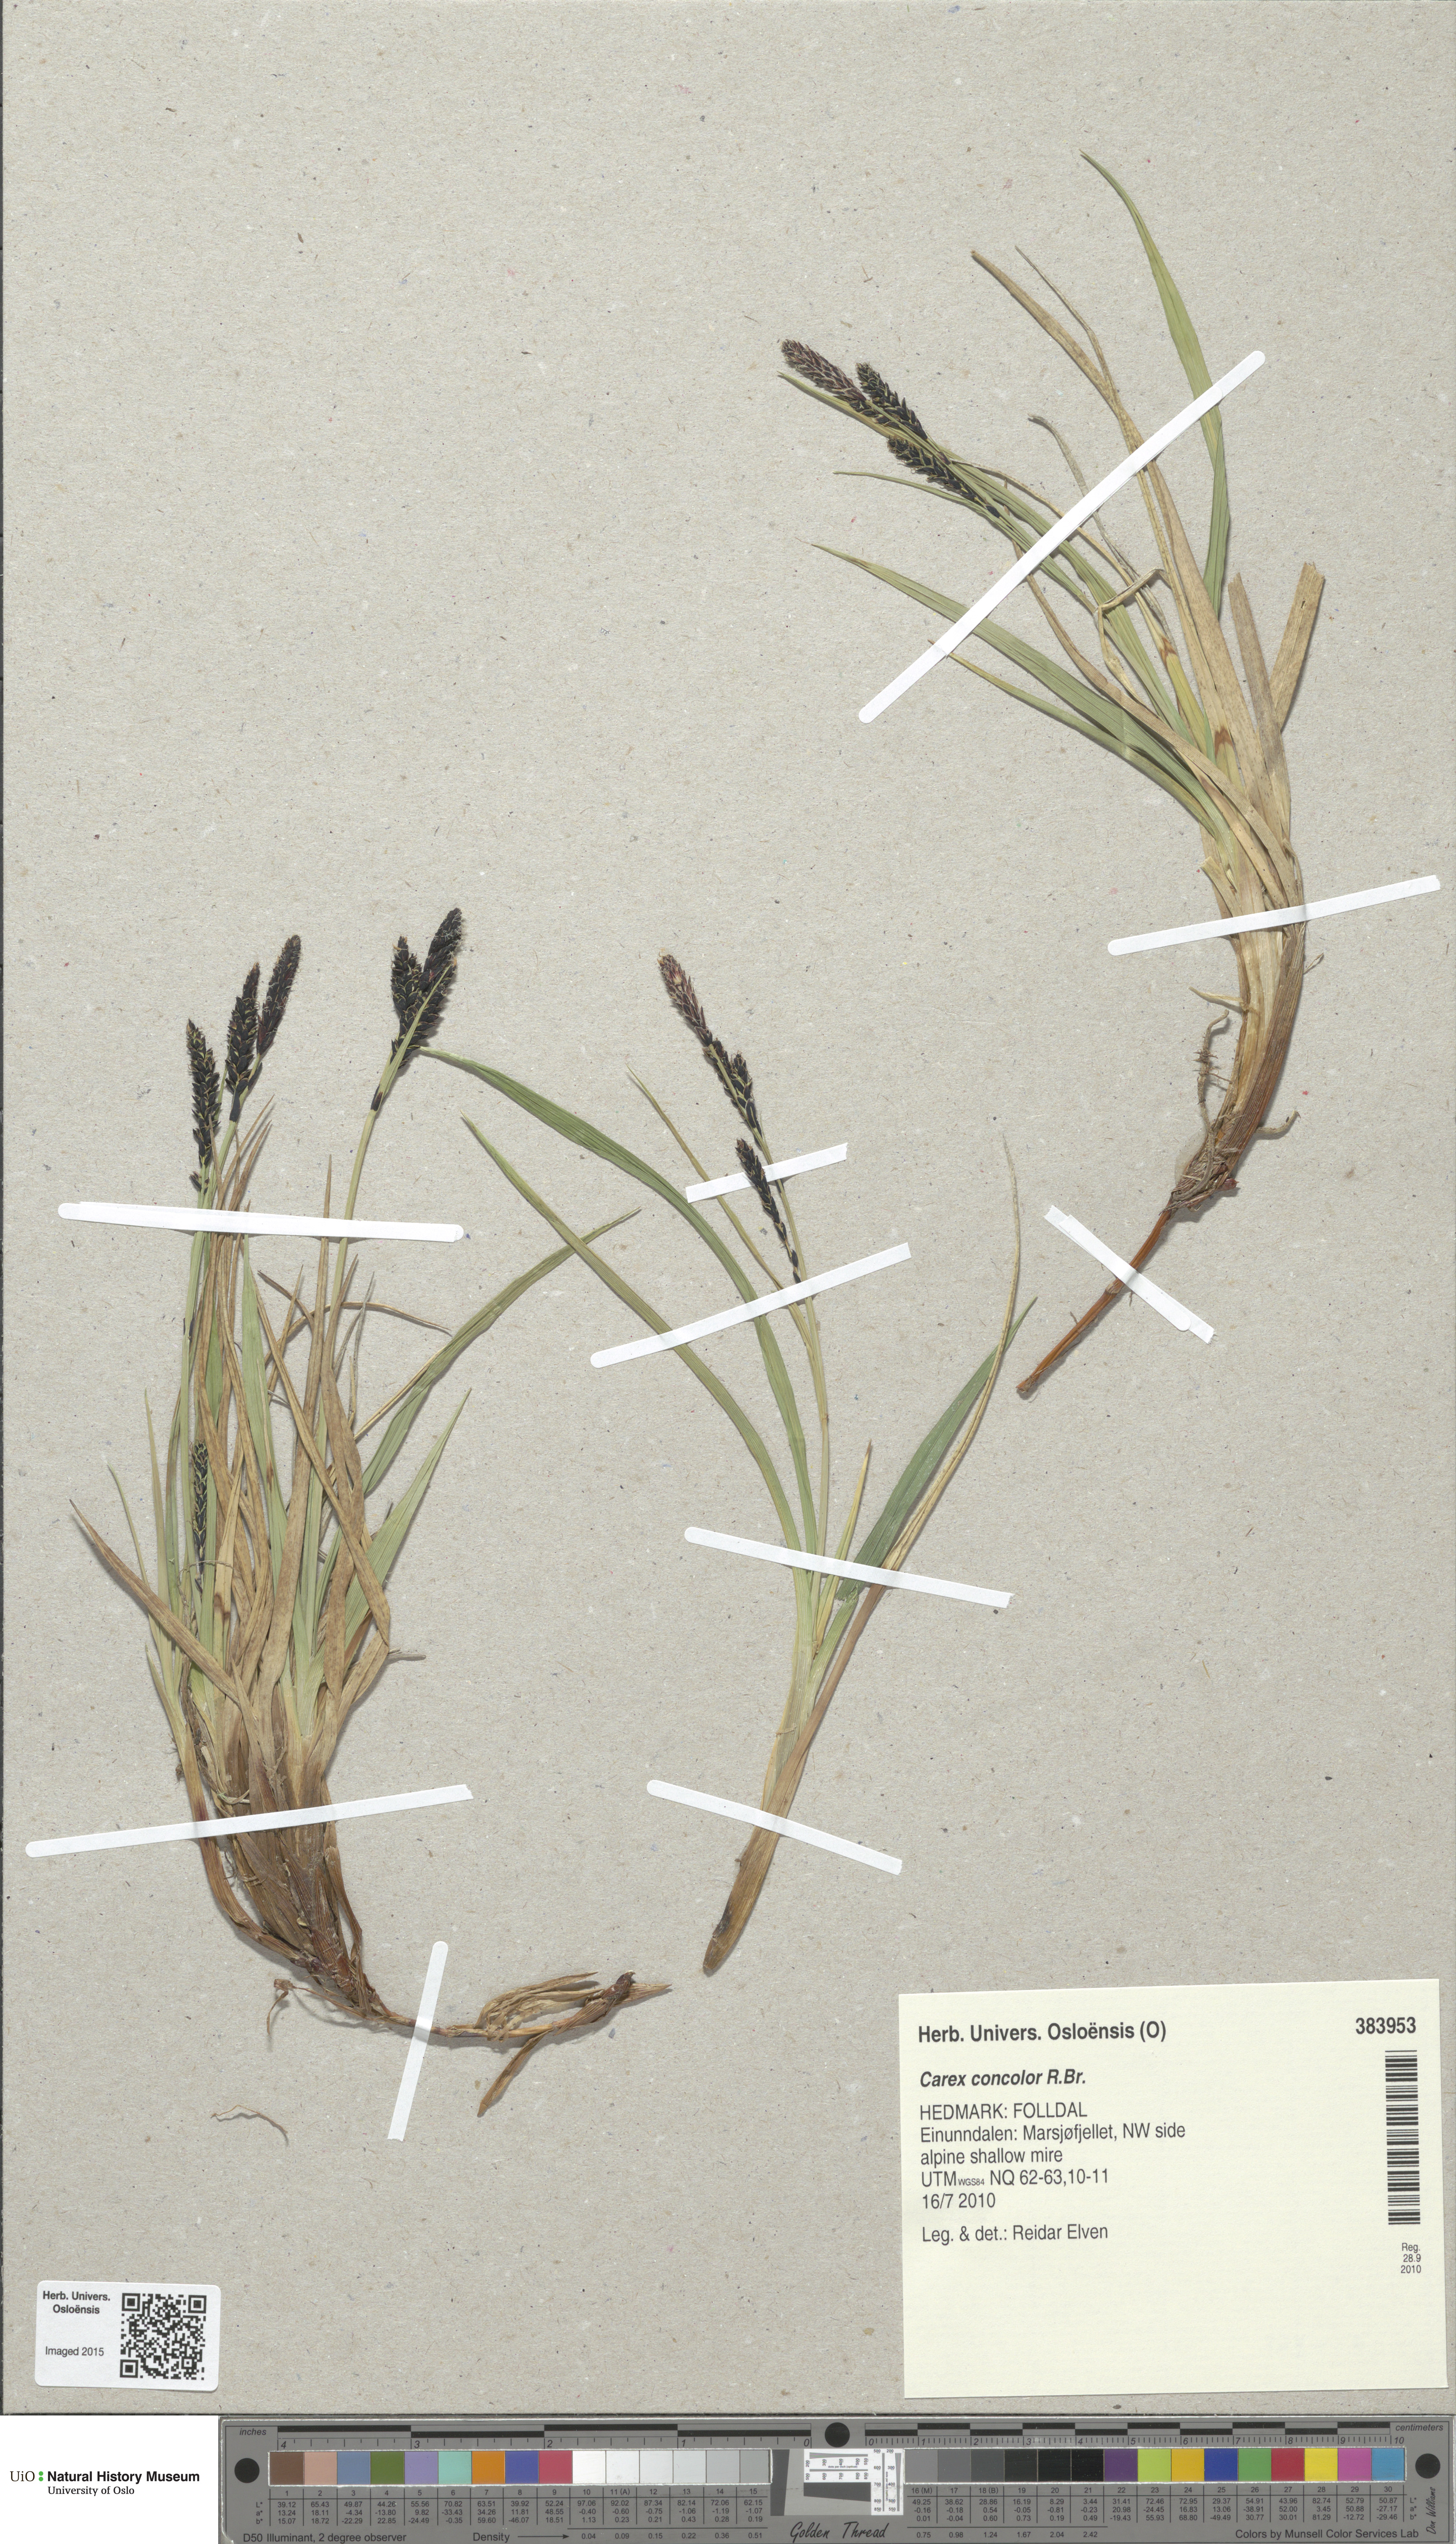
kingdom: Plantae
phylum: Tracheophyta
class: Liliopsida
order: Poales
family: Cyperaceae
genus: Carex
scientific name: Carex aquatilis
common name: Water sedge
